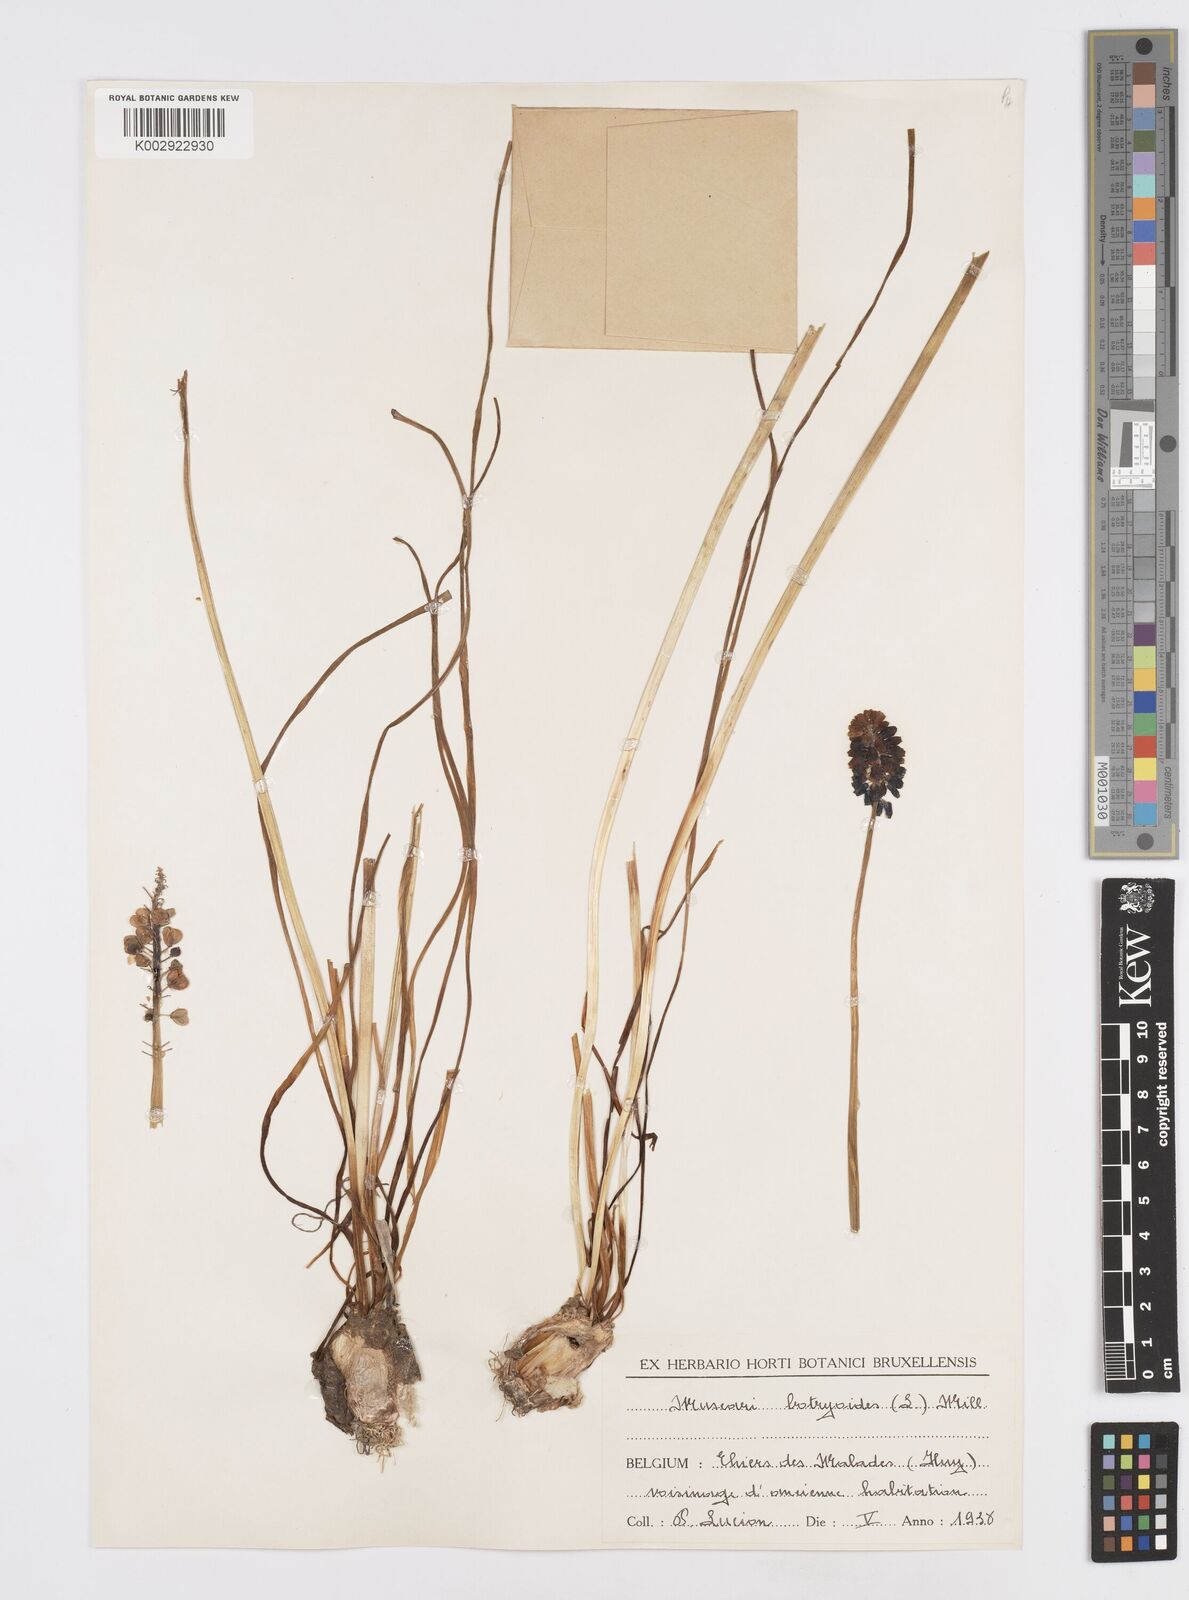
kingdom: Plantae
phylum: Tracheophyta
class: Liliopsida
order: Asparagales
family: Asparagaceae
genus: Muscari
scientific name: Muscari
